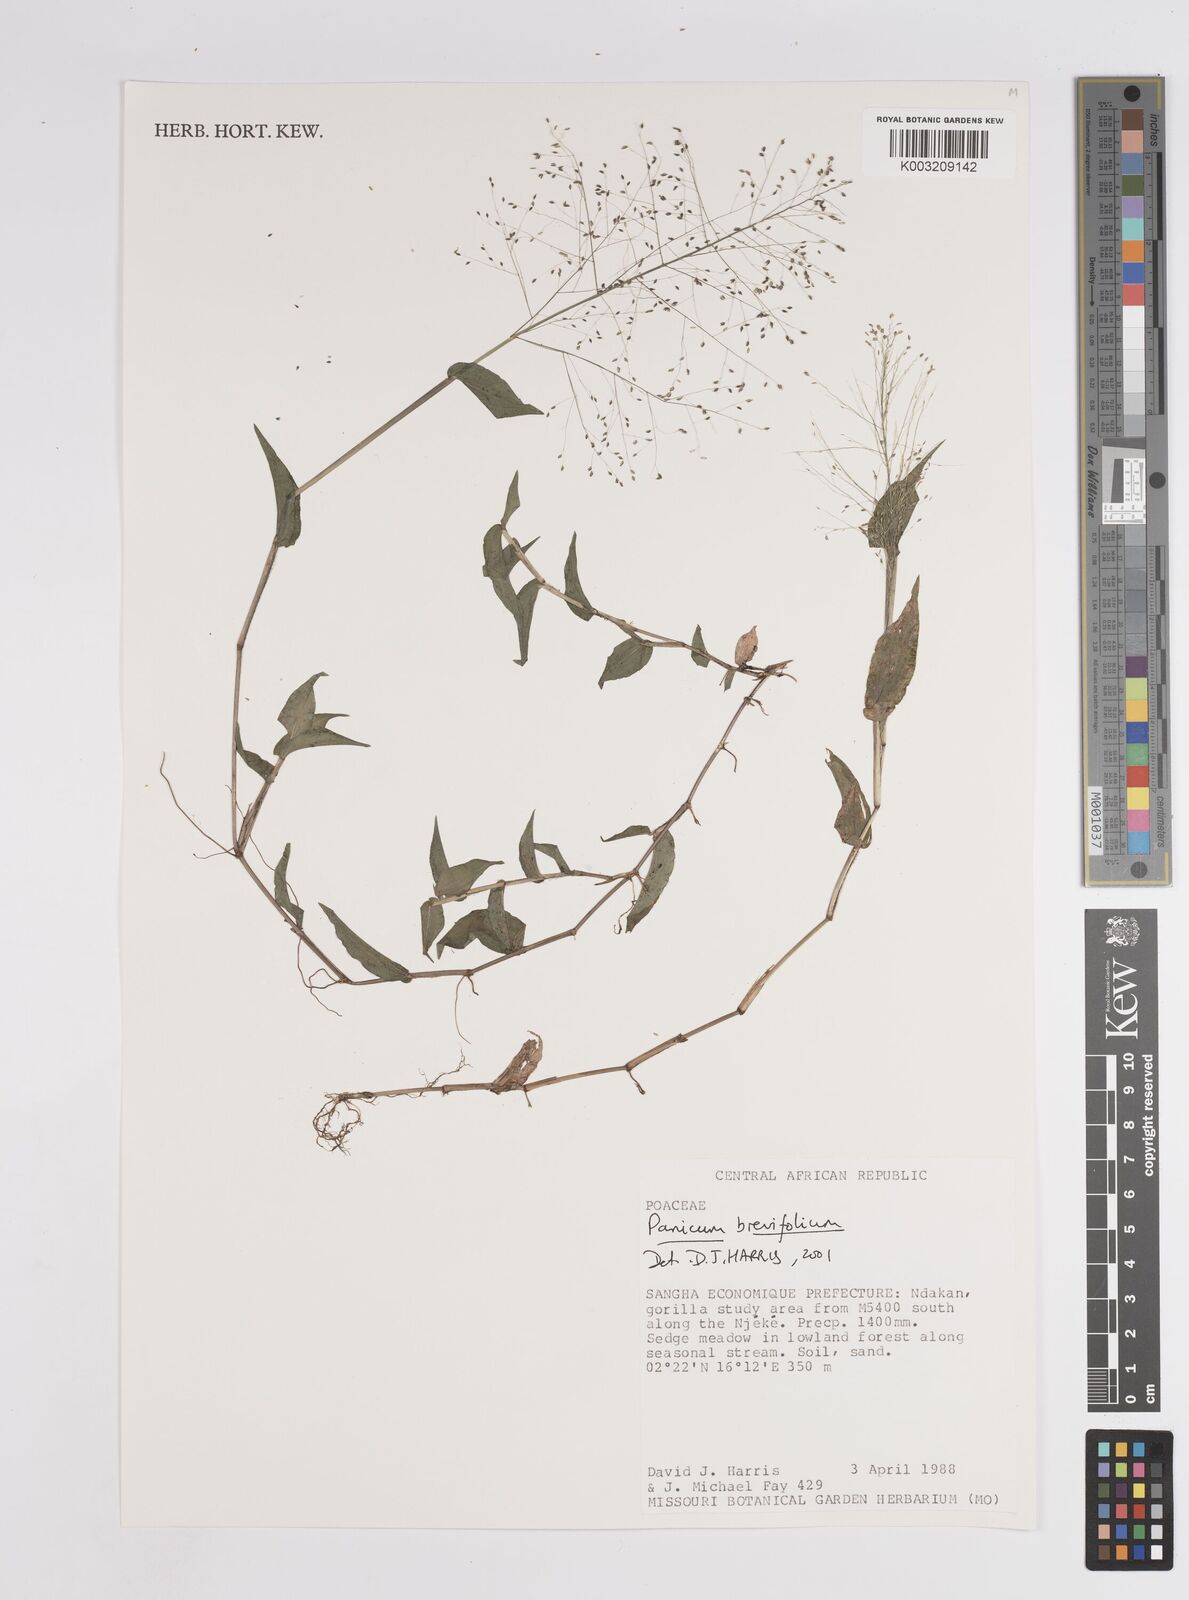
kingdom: Plantae
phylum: Tracheophyta
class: Liliopsida
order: Poales
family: Poaceae
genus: Panicum
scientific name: Panicum brevifolium
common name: Shortleaf panic grass
